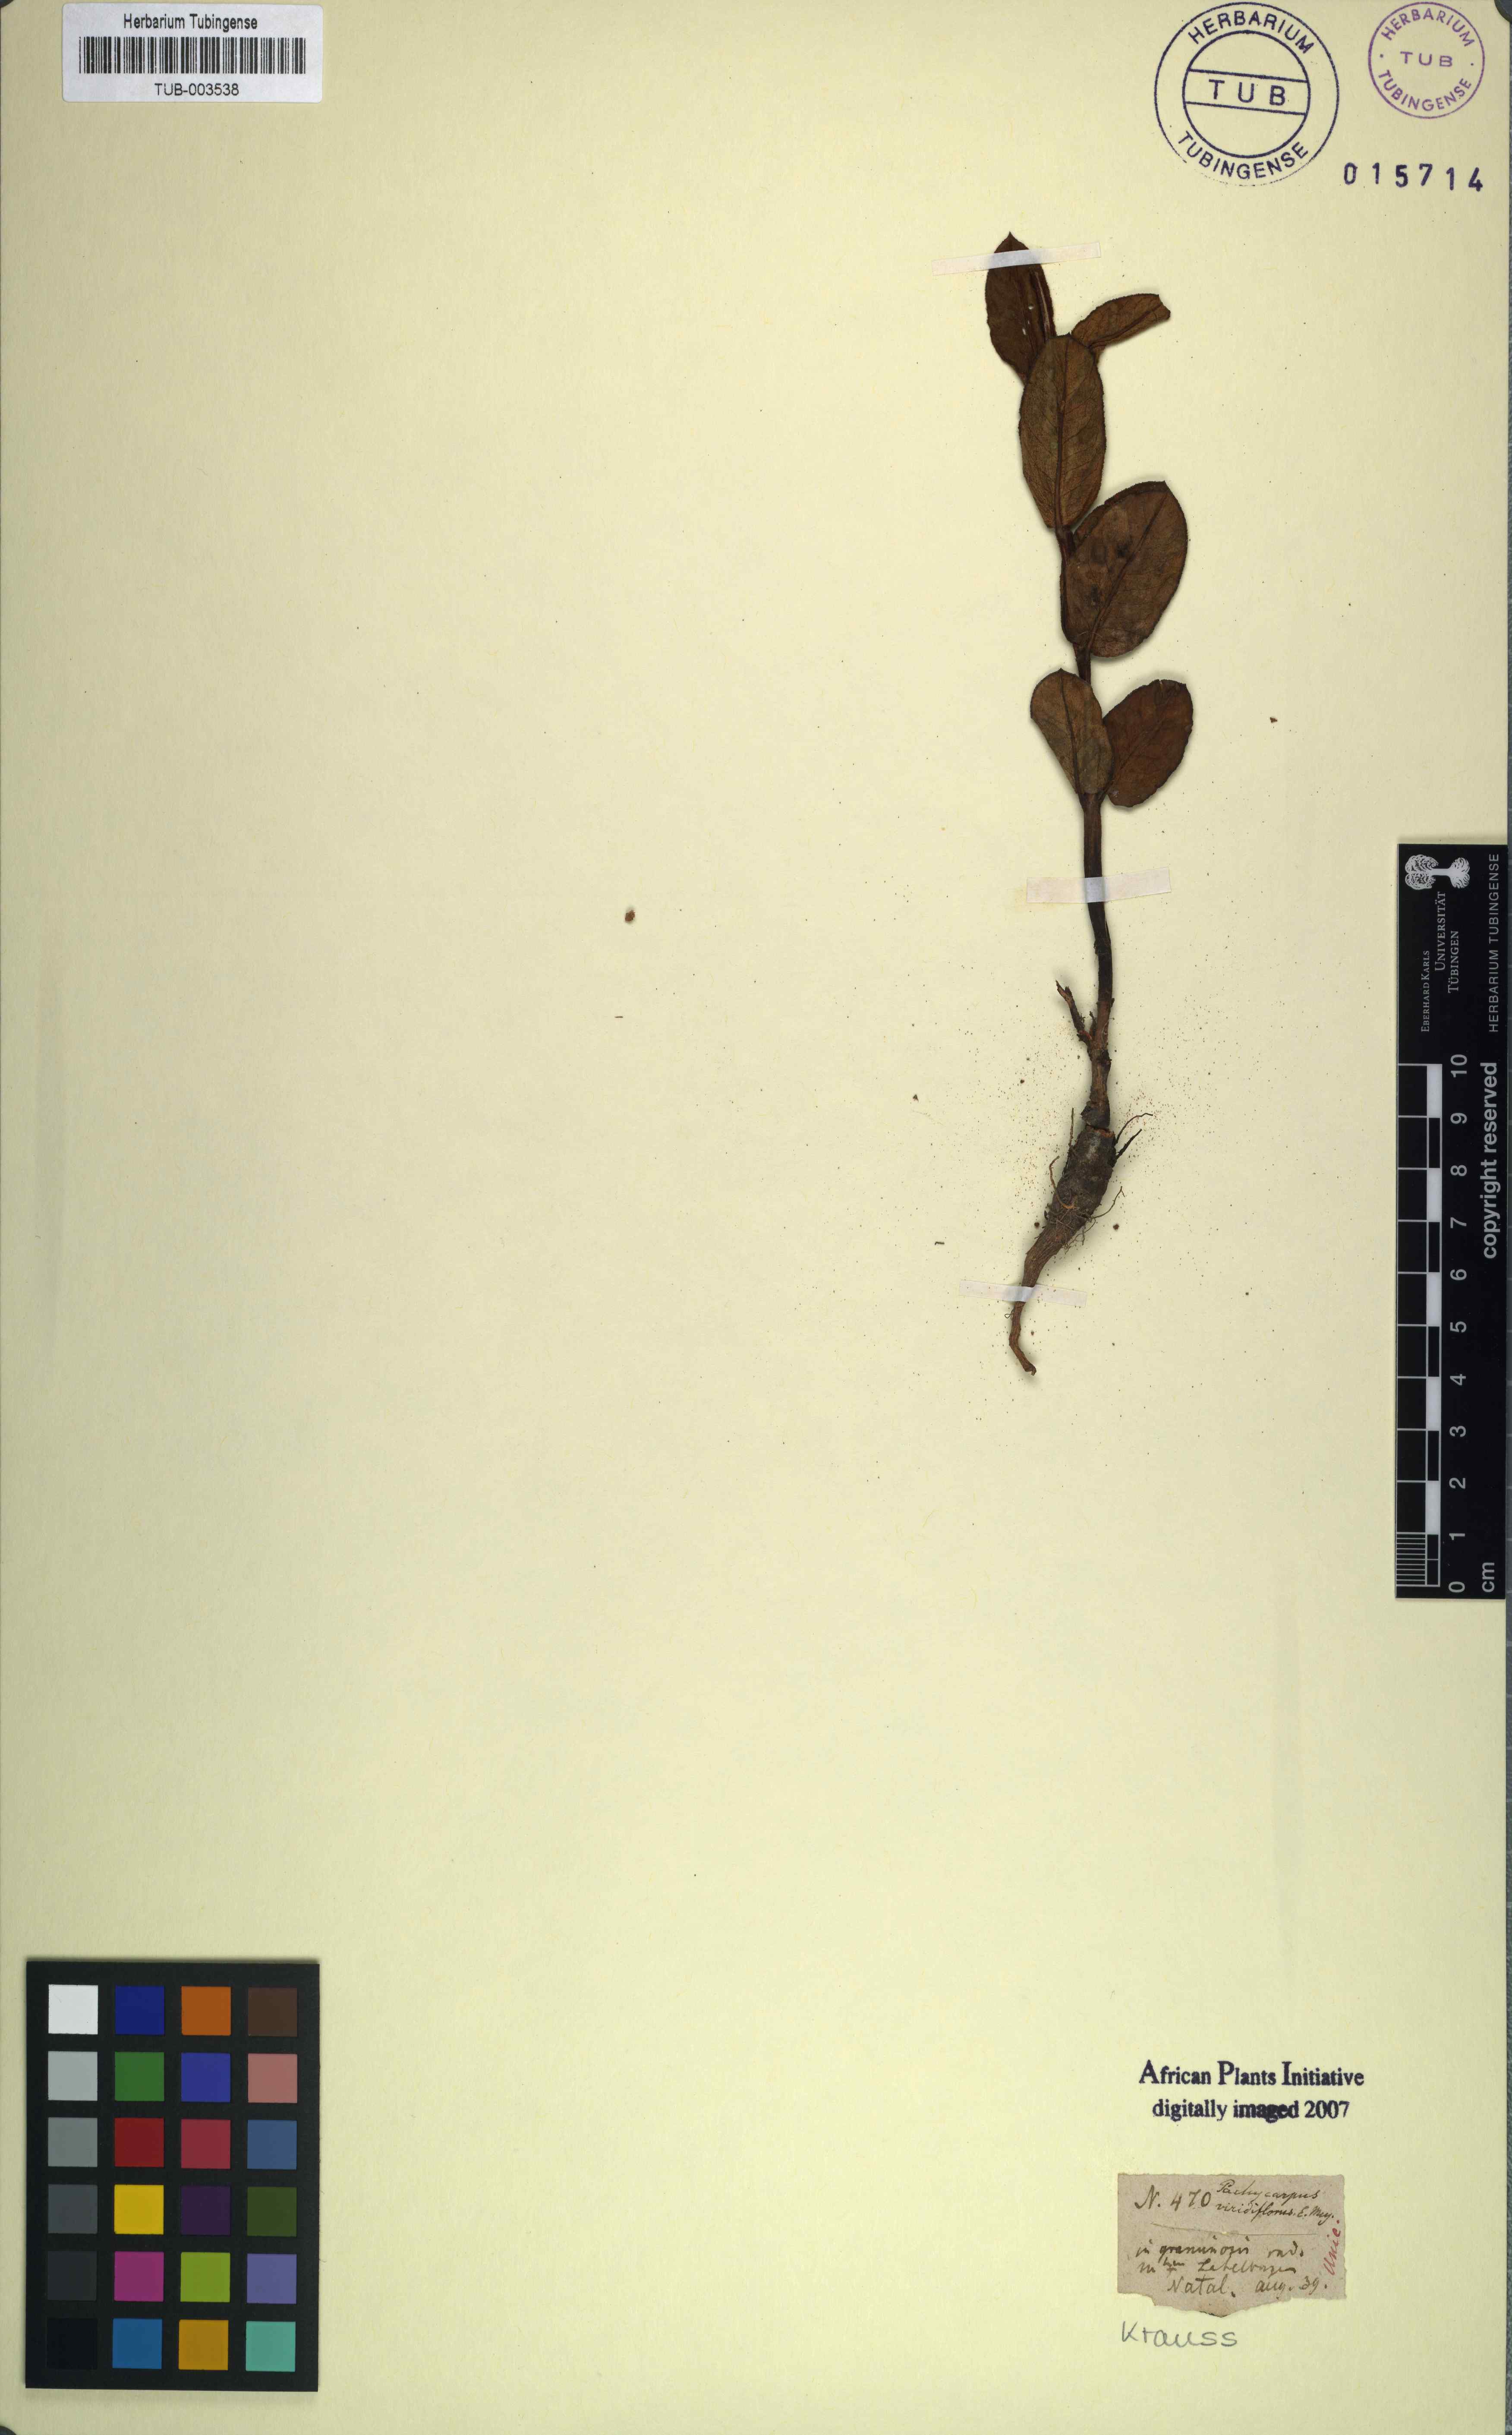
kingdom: Plantae
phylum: Tracheophyta
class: Magnoliopsida
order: Gentianales
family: Apocynaceae
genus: Asclepias
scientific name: Asclepias fulva
